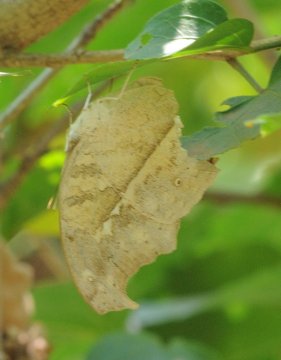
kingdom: Animalia
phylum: Arthropoda
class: Insecta
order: Lepidoptera
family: Nymphalidae
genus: Salamis
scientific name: Salamis anacardii
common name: Clouded Mother-of-Pearl
